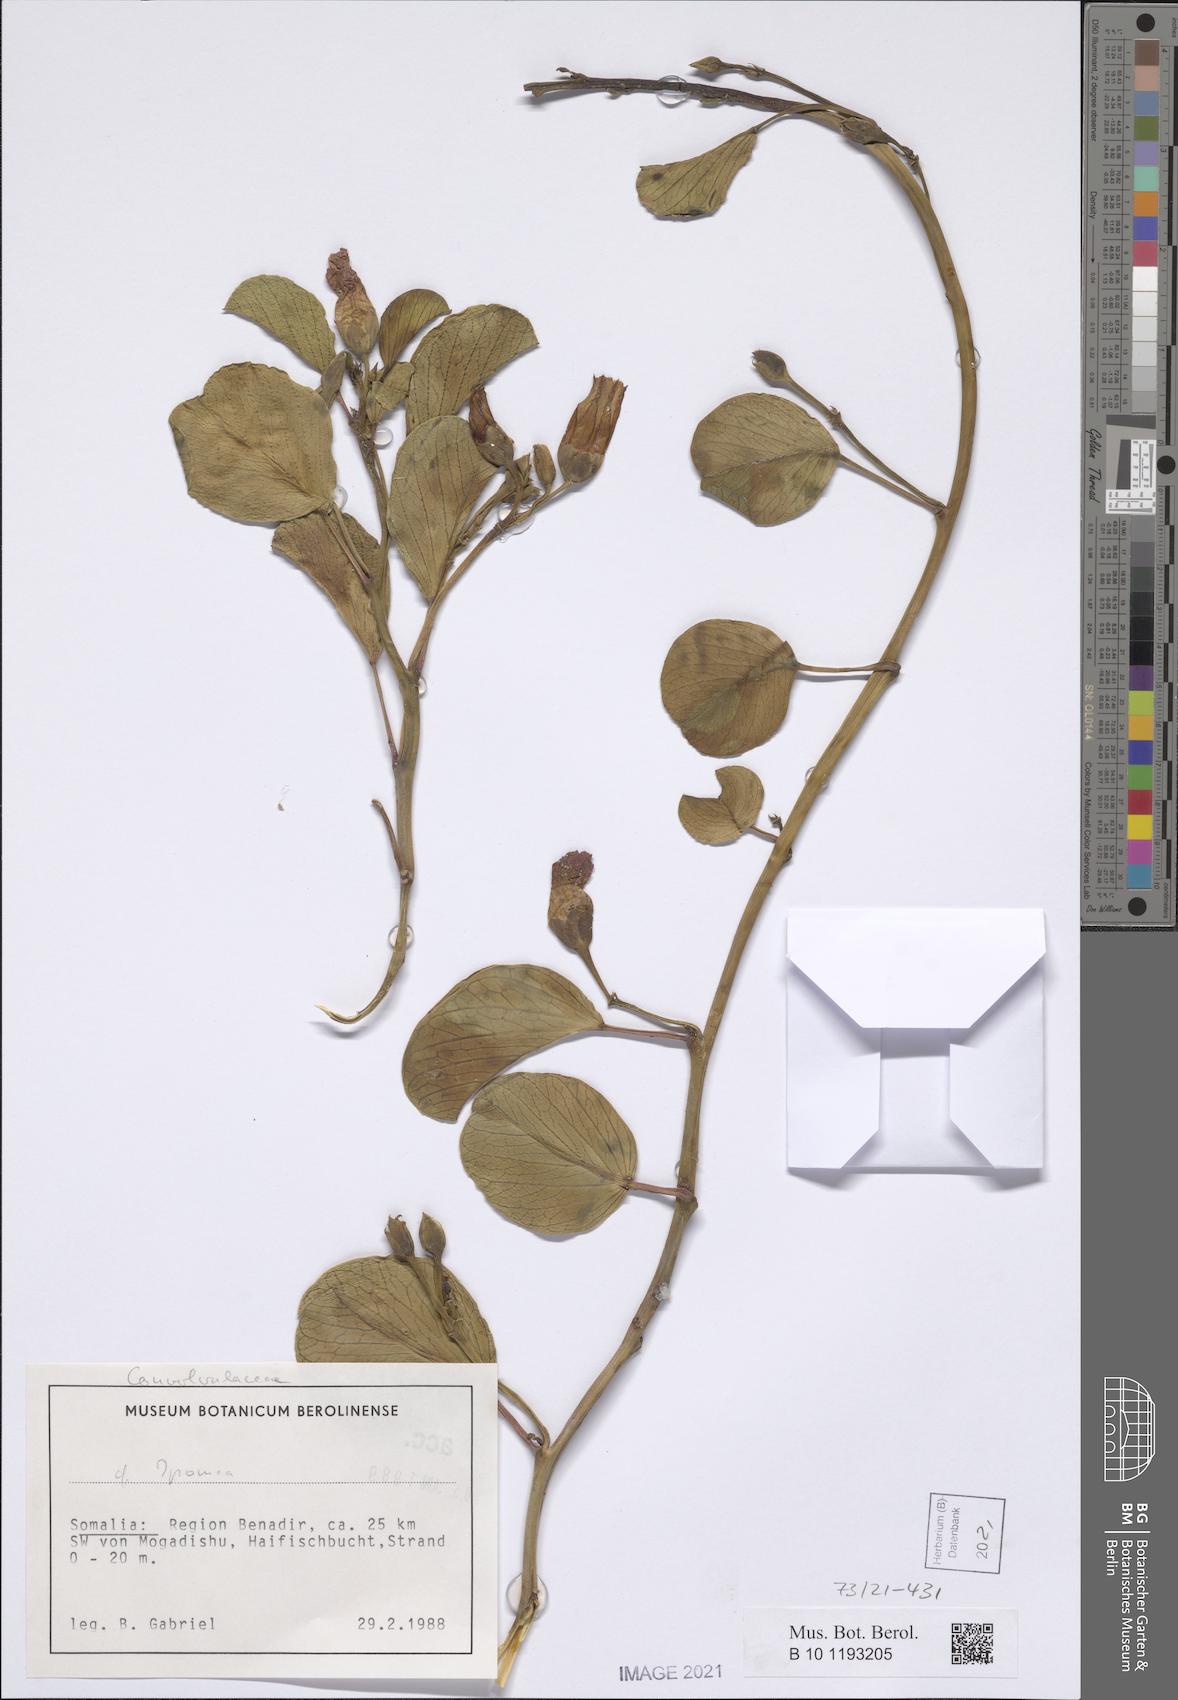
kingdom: Plantae
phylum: Tracheophyta
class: Magnoliopsida
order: Solanales
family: Convolvulaceae
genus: Ipomoea
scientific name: Ipomoea pes-caprae
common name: Beach morning glory
